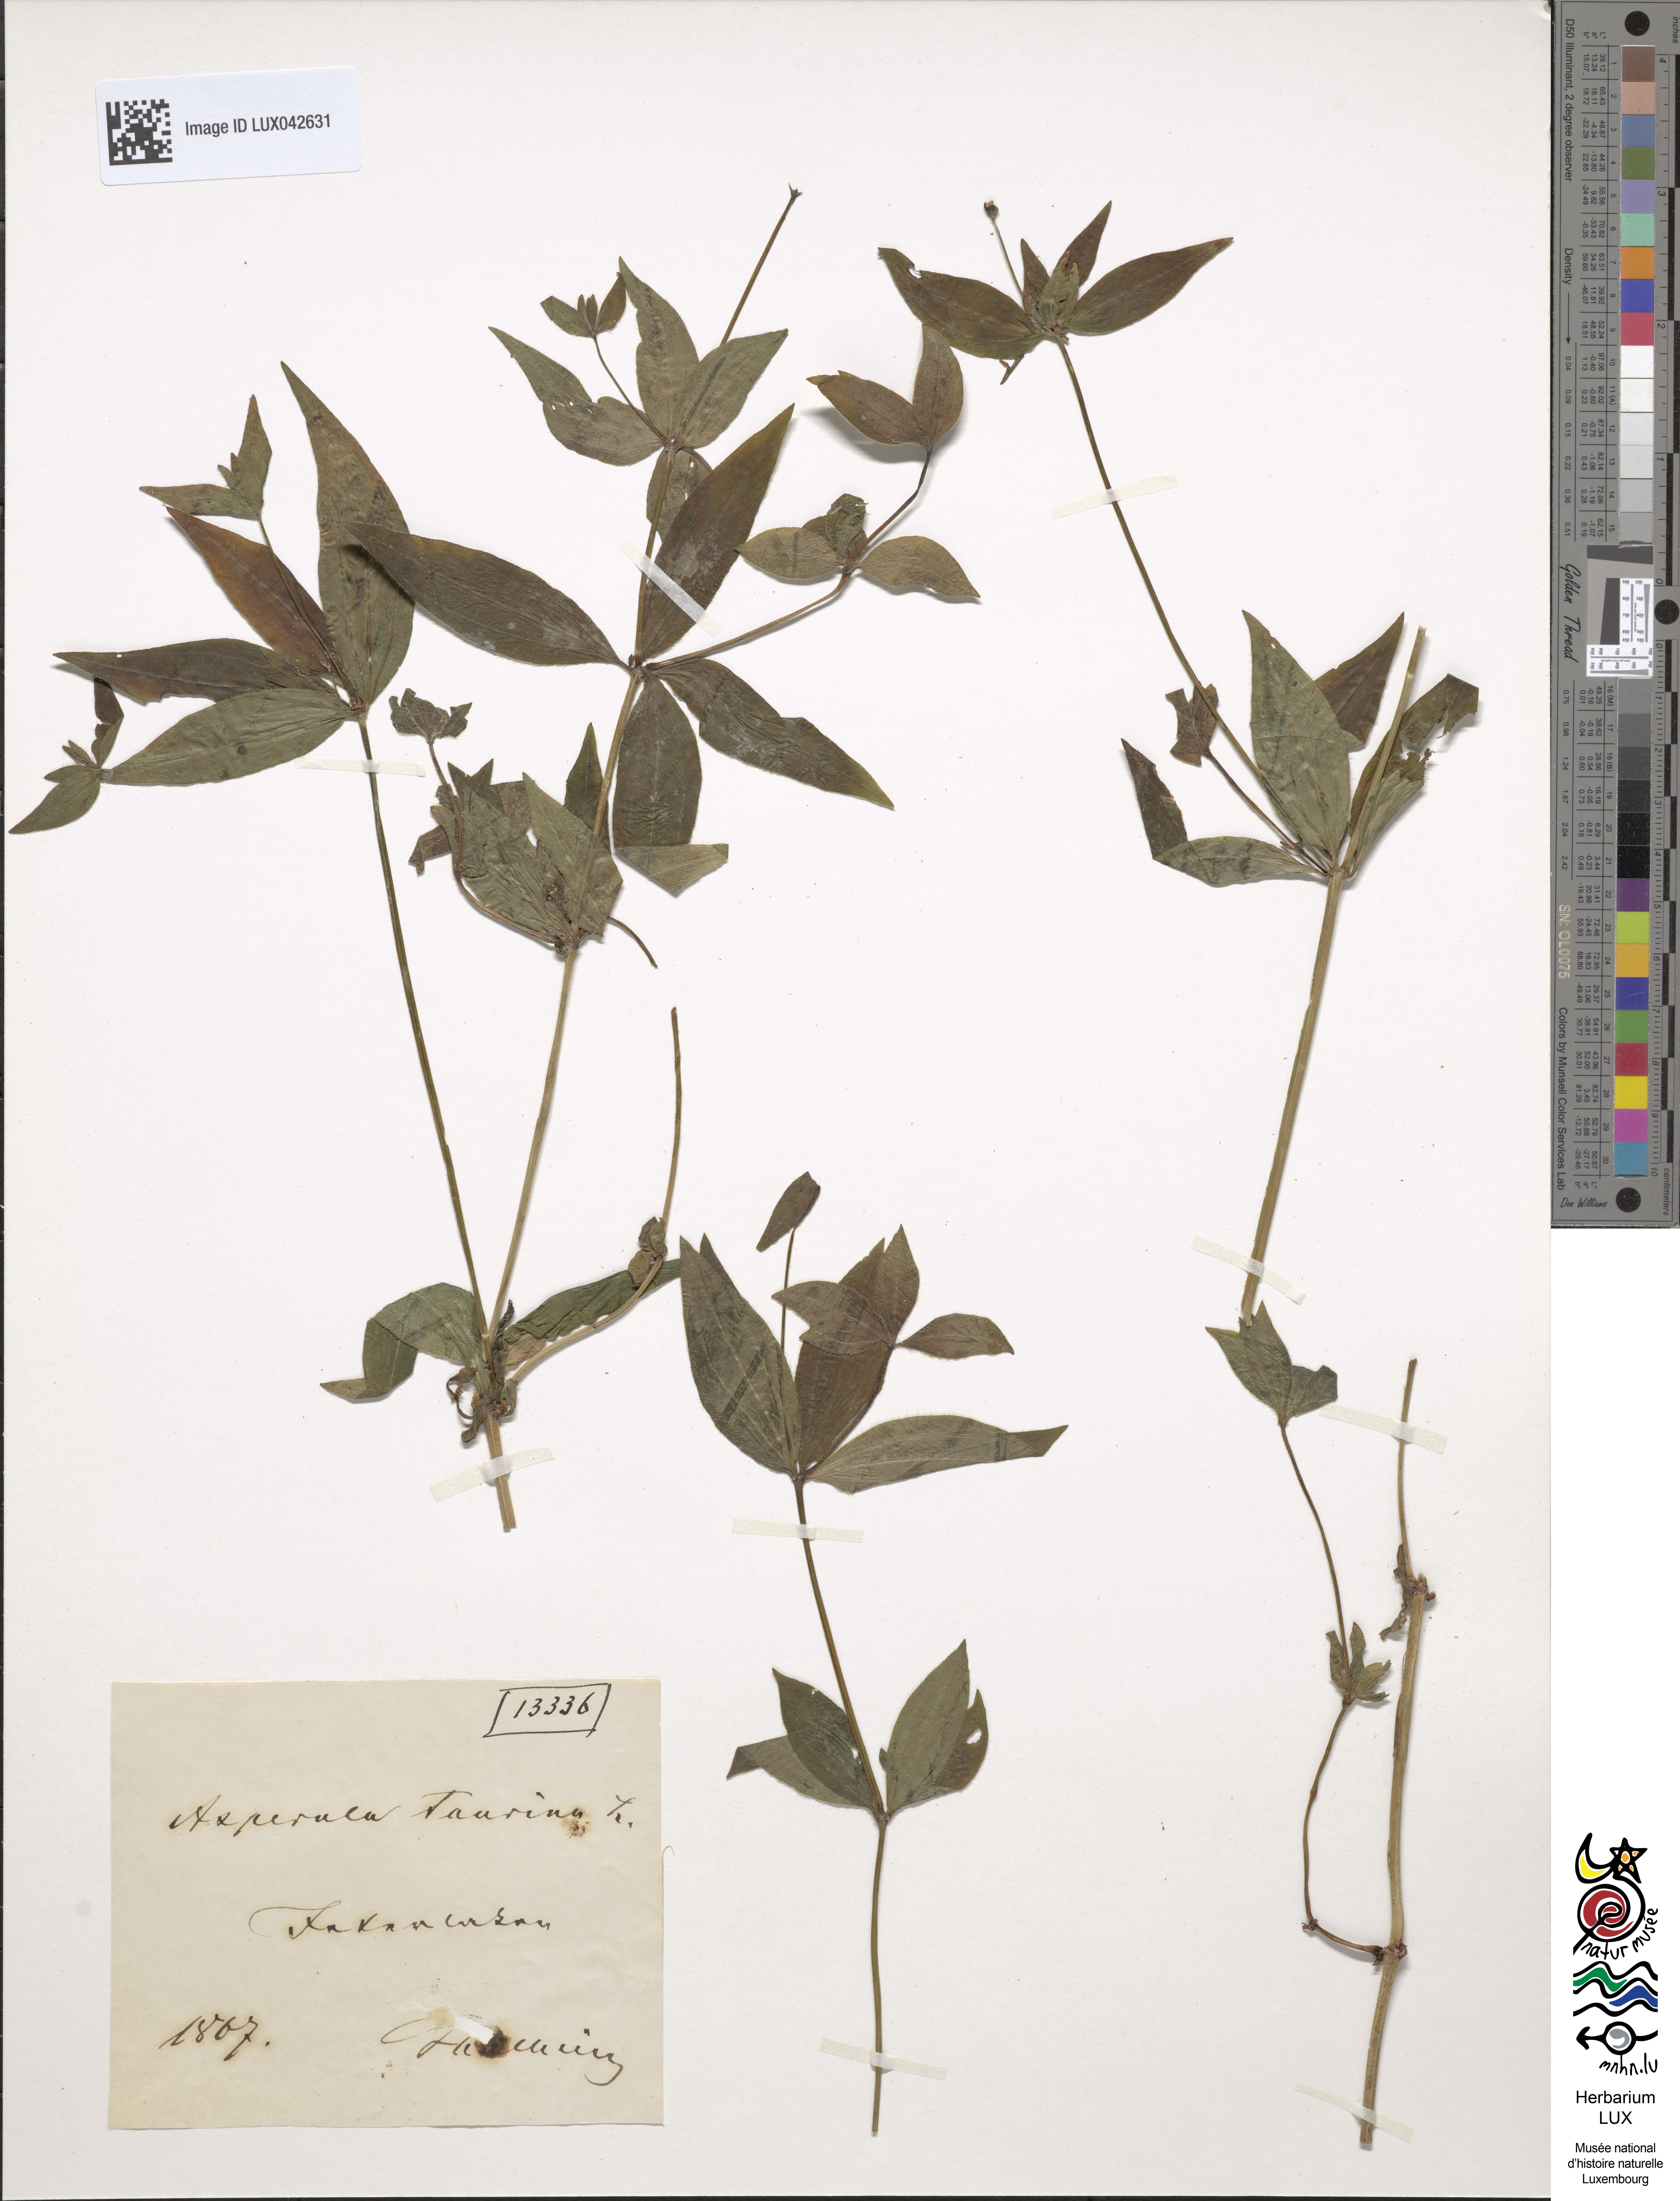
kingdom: Plantae
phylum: Tracheophyta
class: Magnoliopsida
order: Gentianales
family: Rubiaceae
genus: Asperula
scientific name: Asperula taurina
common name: Pink woodruff
